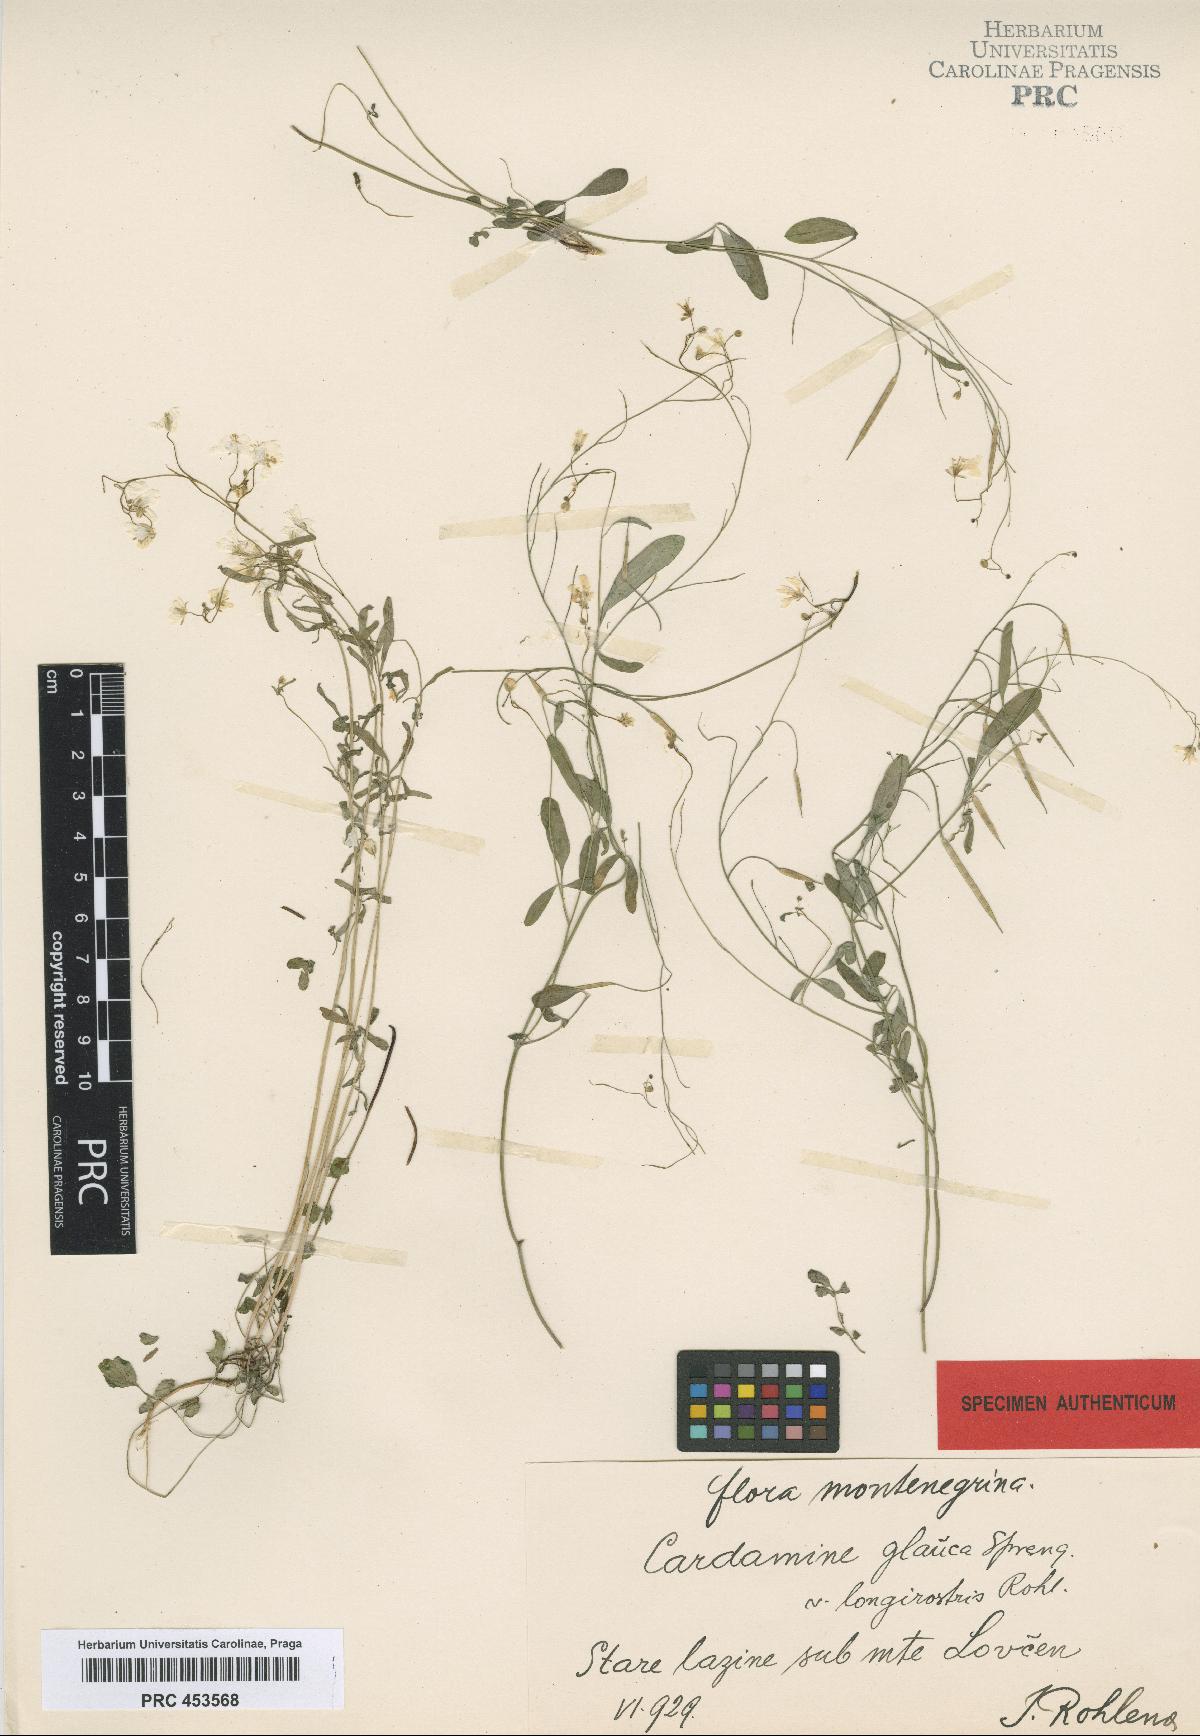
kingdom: Plantae
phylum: Tracheophyta
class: Magnoliopsida
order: Brassicales
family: Brassicaceae
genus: Cardamine
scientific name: Cardamine glauca
